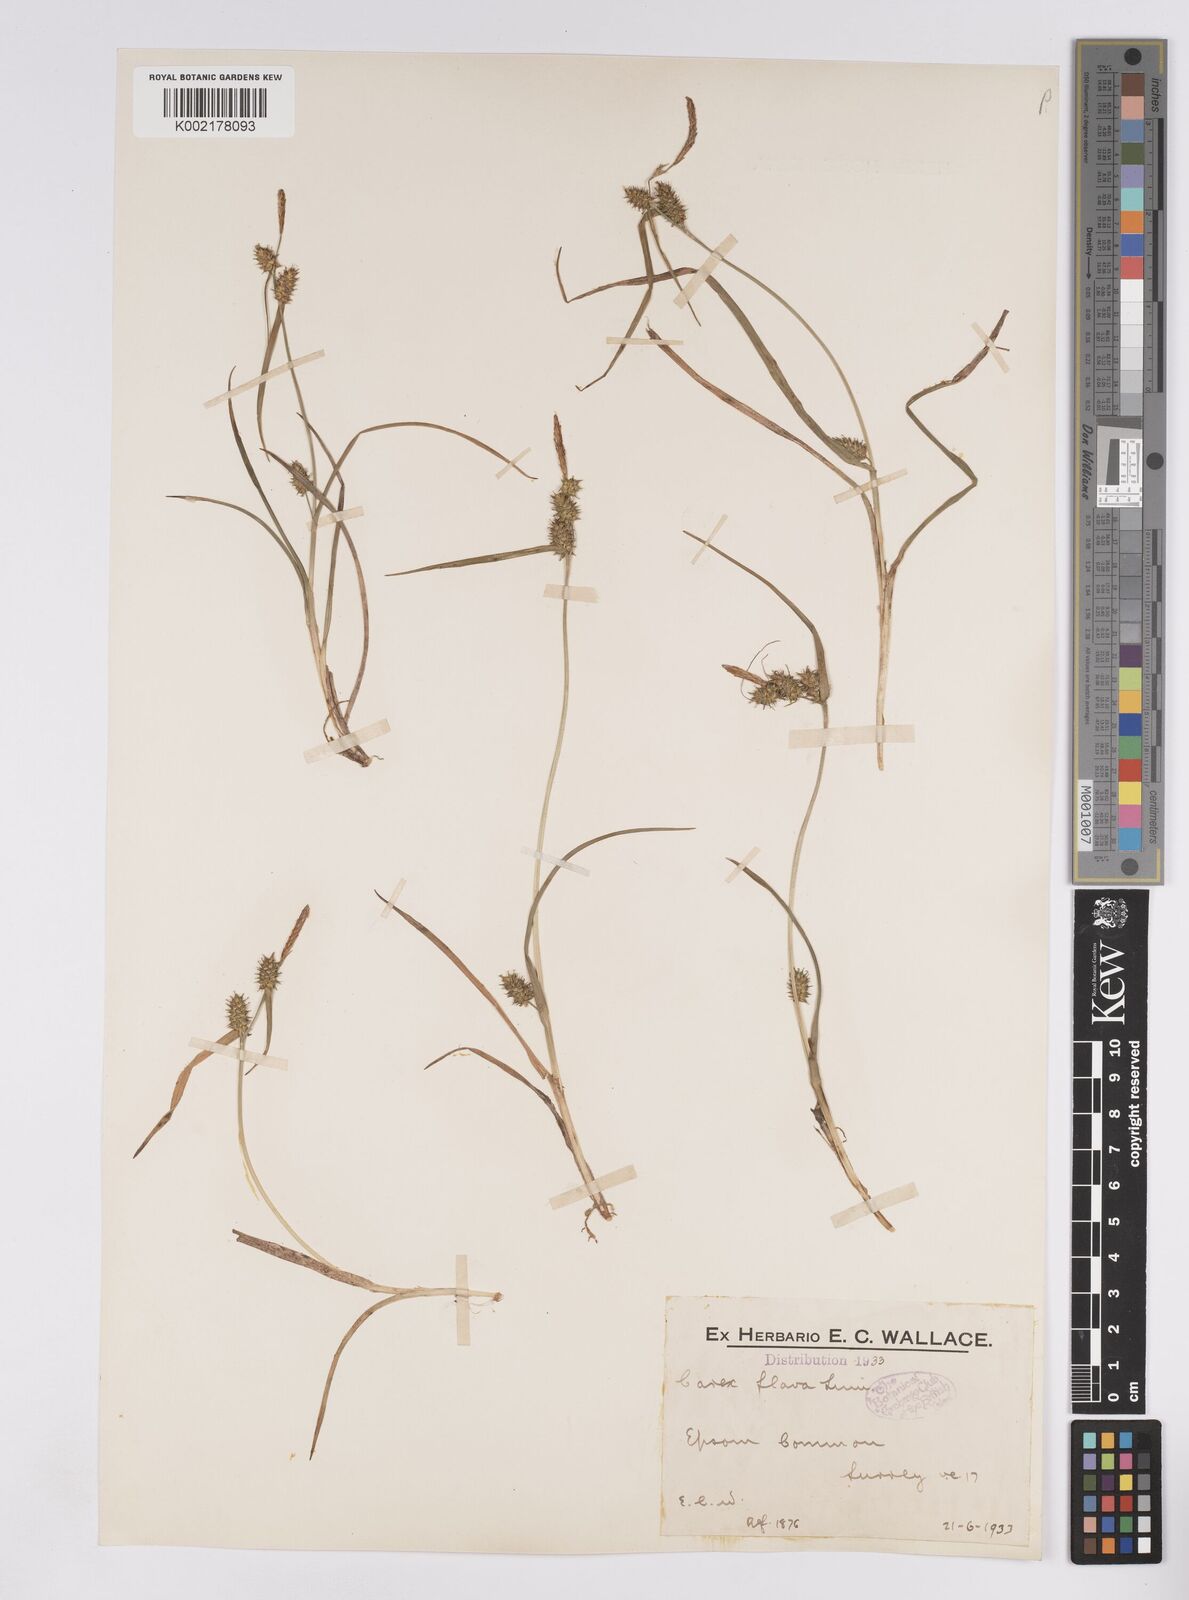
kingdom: Plantae
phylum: Tracheophyta
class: Liliopsida
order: Poales
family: Cyperaceae
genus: Carex
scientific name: Carex demissa
